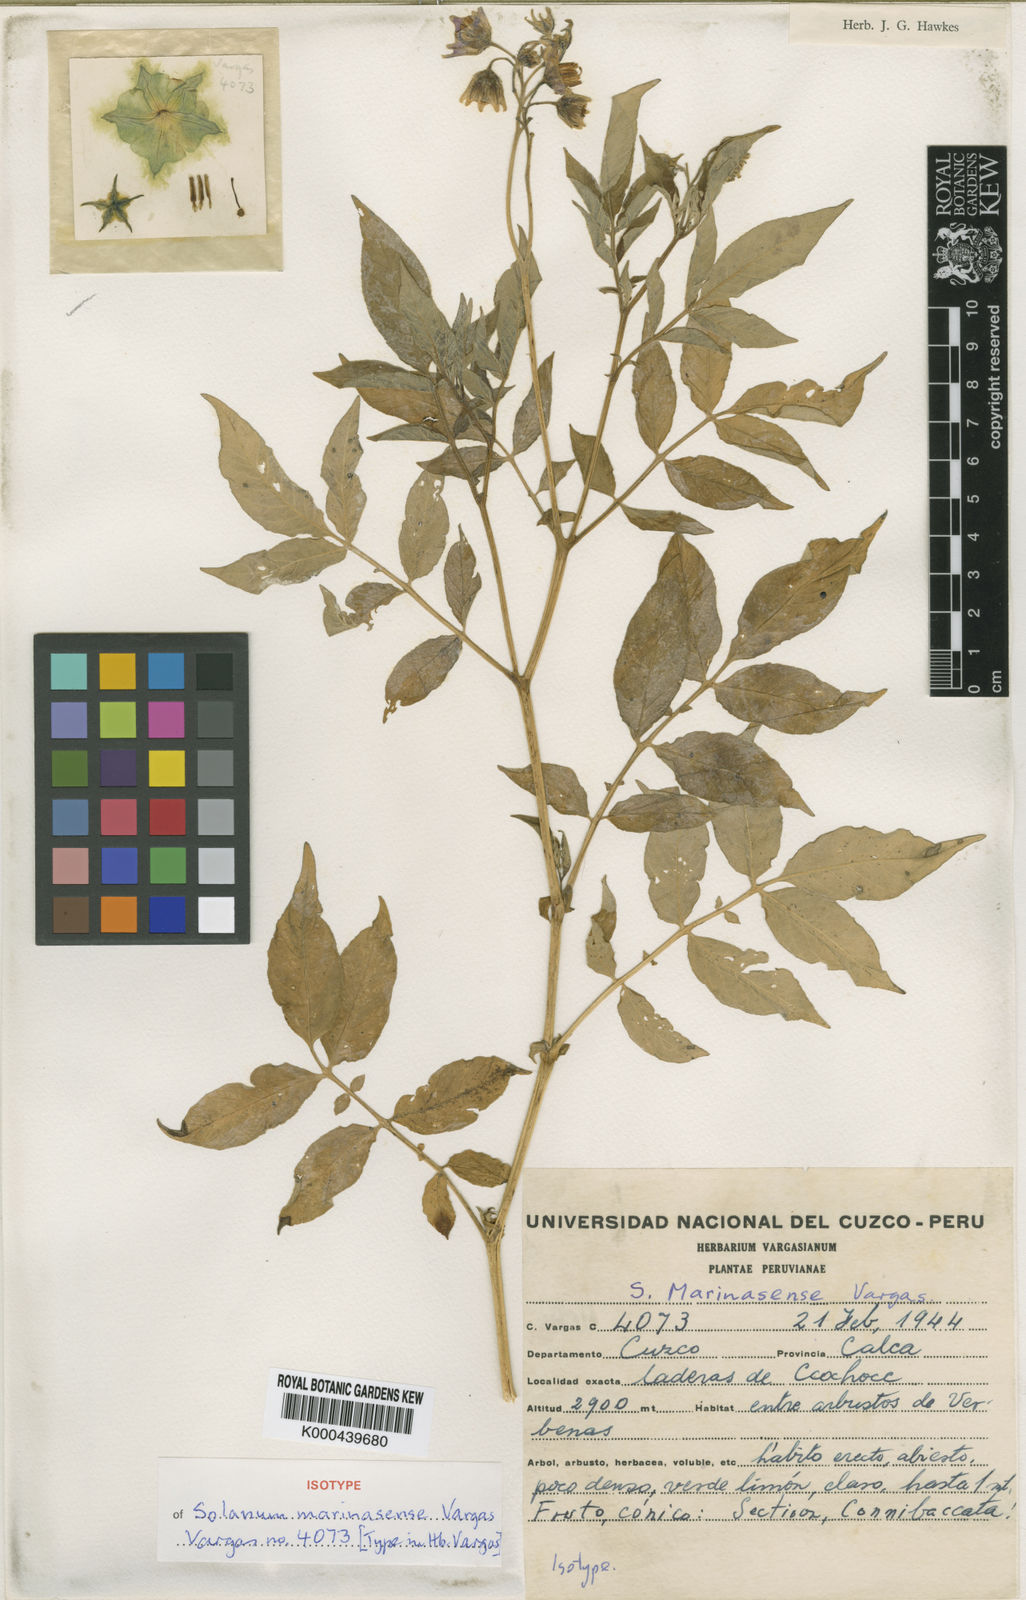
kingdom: Plantae
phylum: Tracheophyta
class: Magnoliopsida
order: Solanales
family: Solanaceae
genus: Solanum
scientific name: Solanum candolleanum
